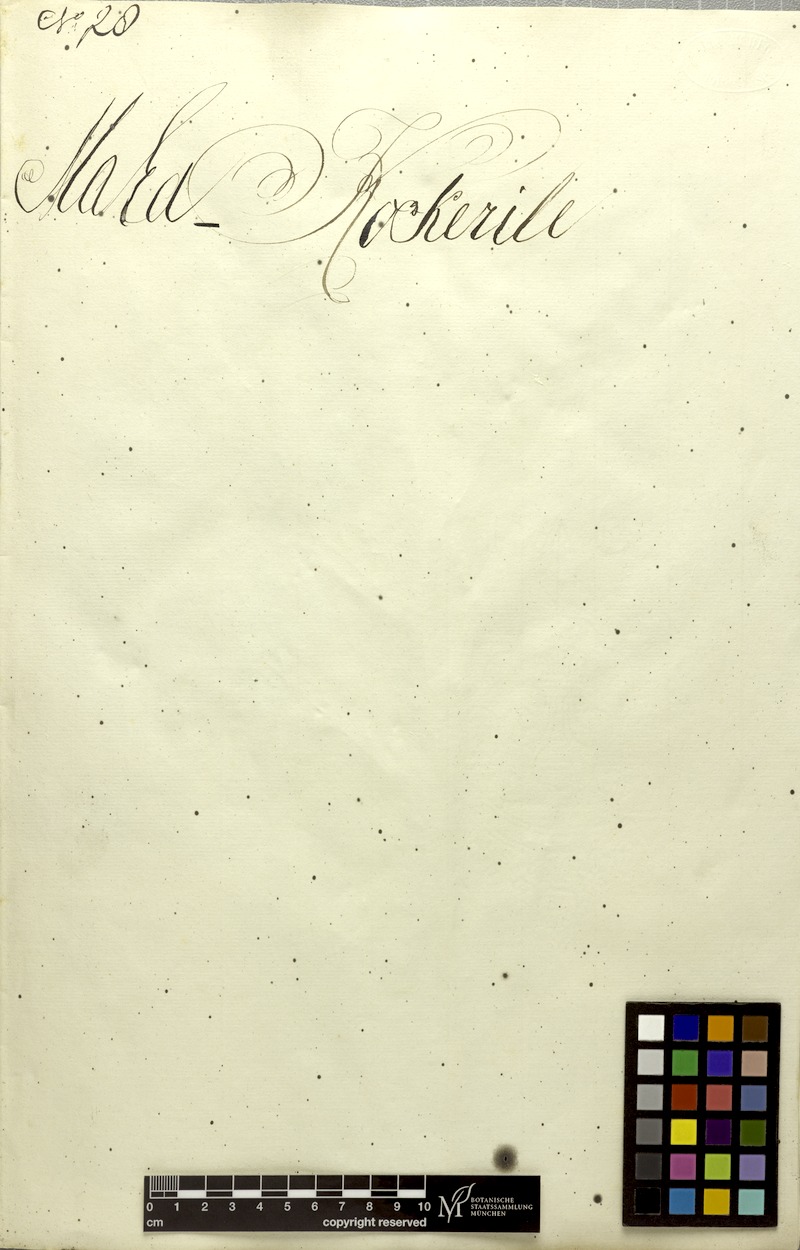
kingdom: Plantae
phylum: Tracheophyta
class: Magnoliopsida
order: Malvales
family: Malvaceae
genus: Microcos
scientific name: Microcos paniculata
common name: Microcos
